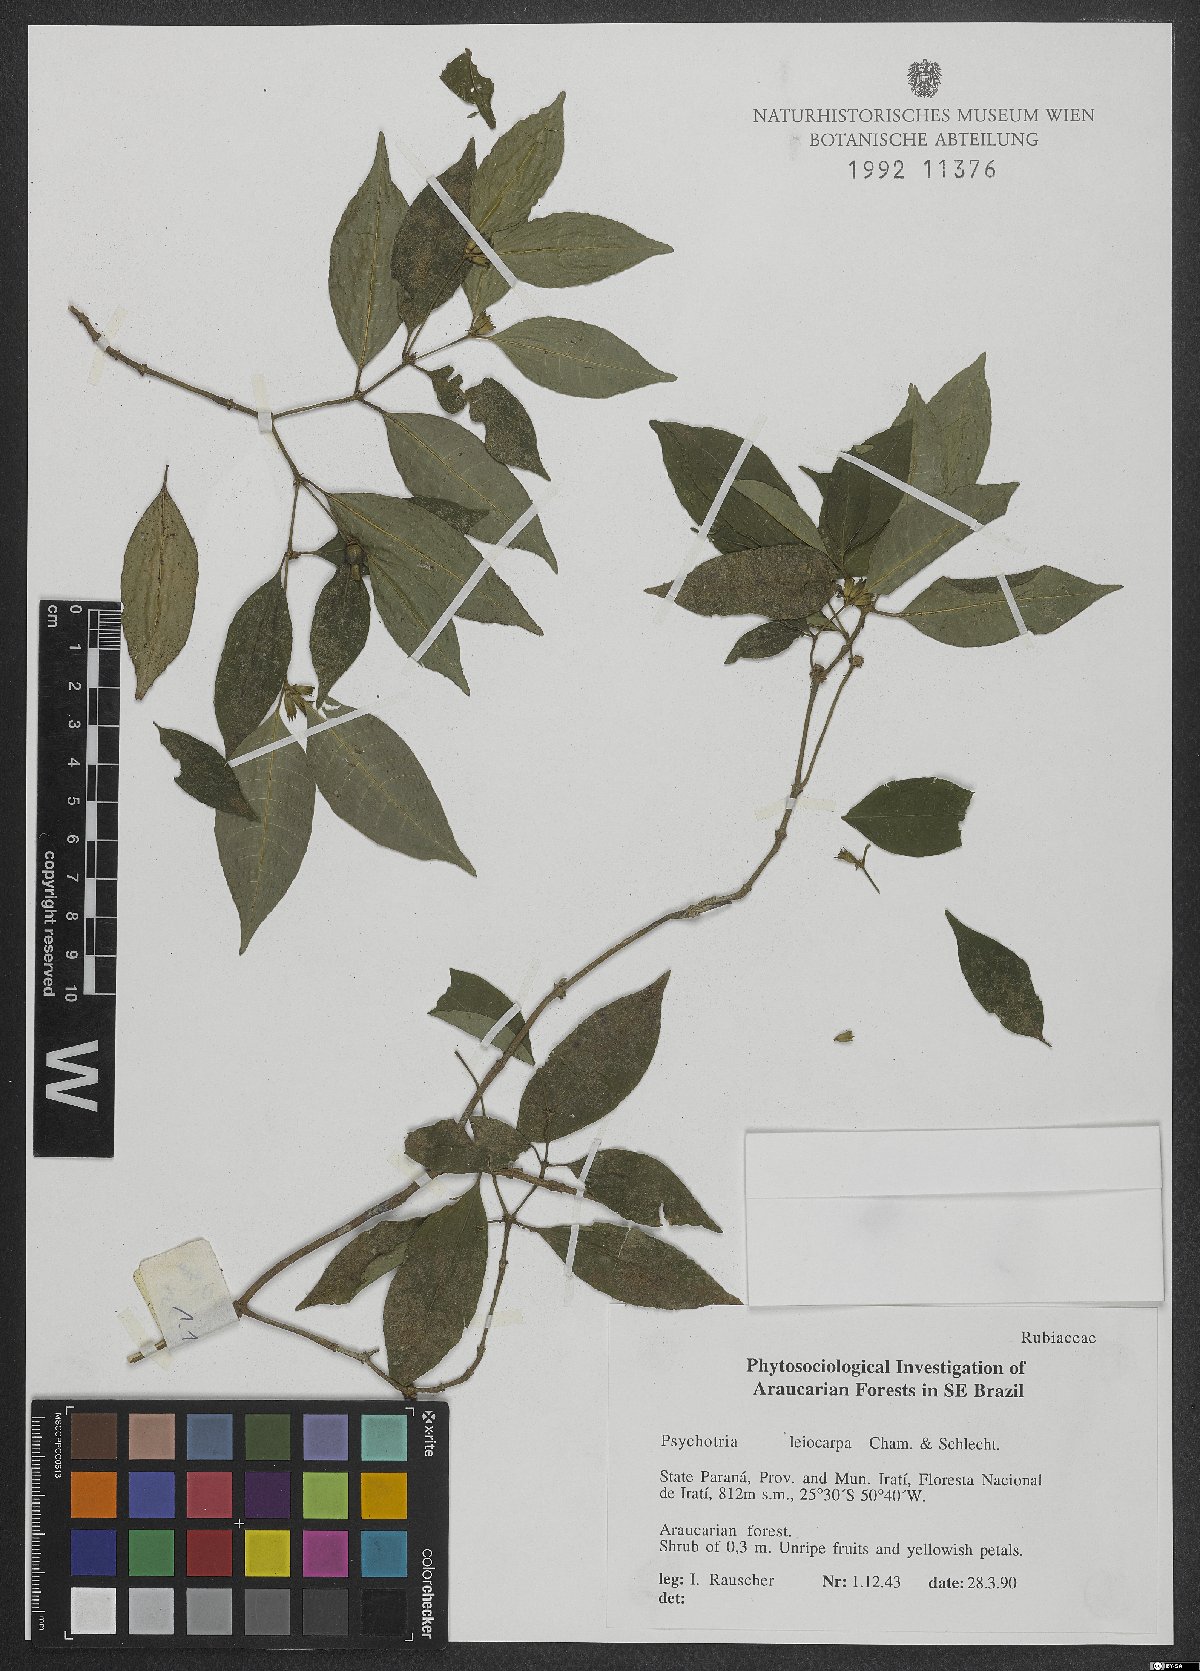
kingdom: Plantae
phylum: Tracheophyta
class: Magnoliopsida
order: Gentianales
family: Rubiaceae
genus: Psychotria
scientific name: Psychotria leiocarpa
